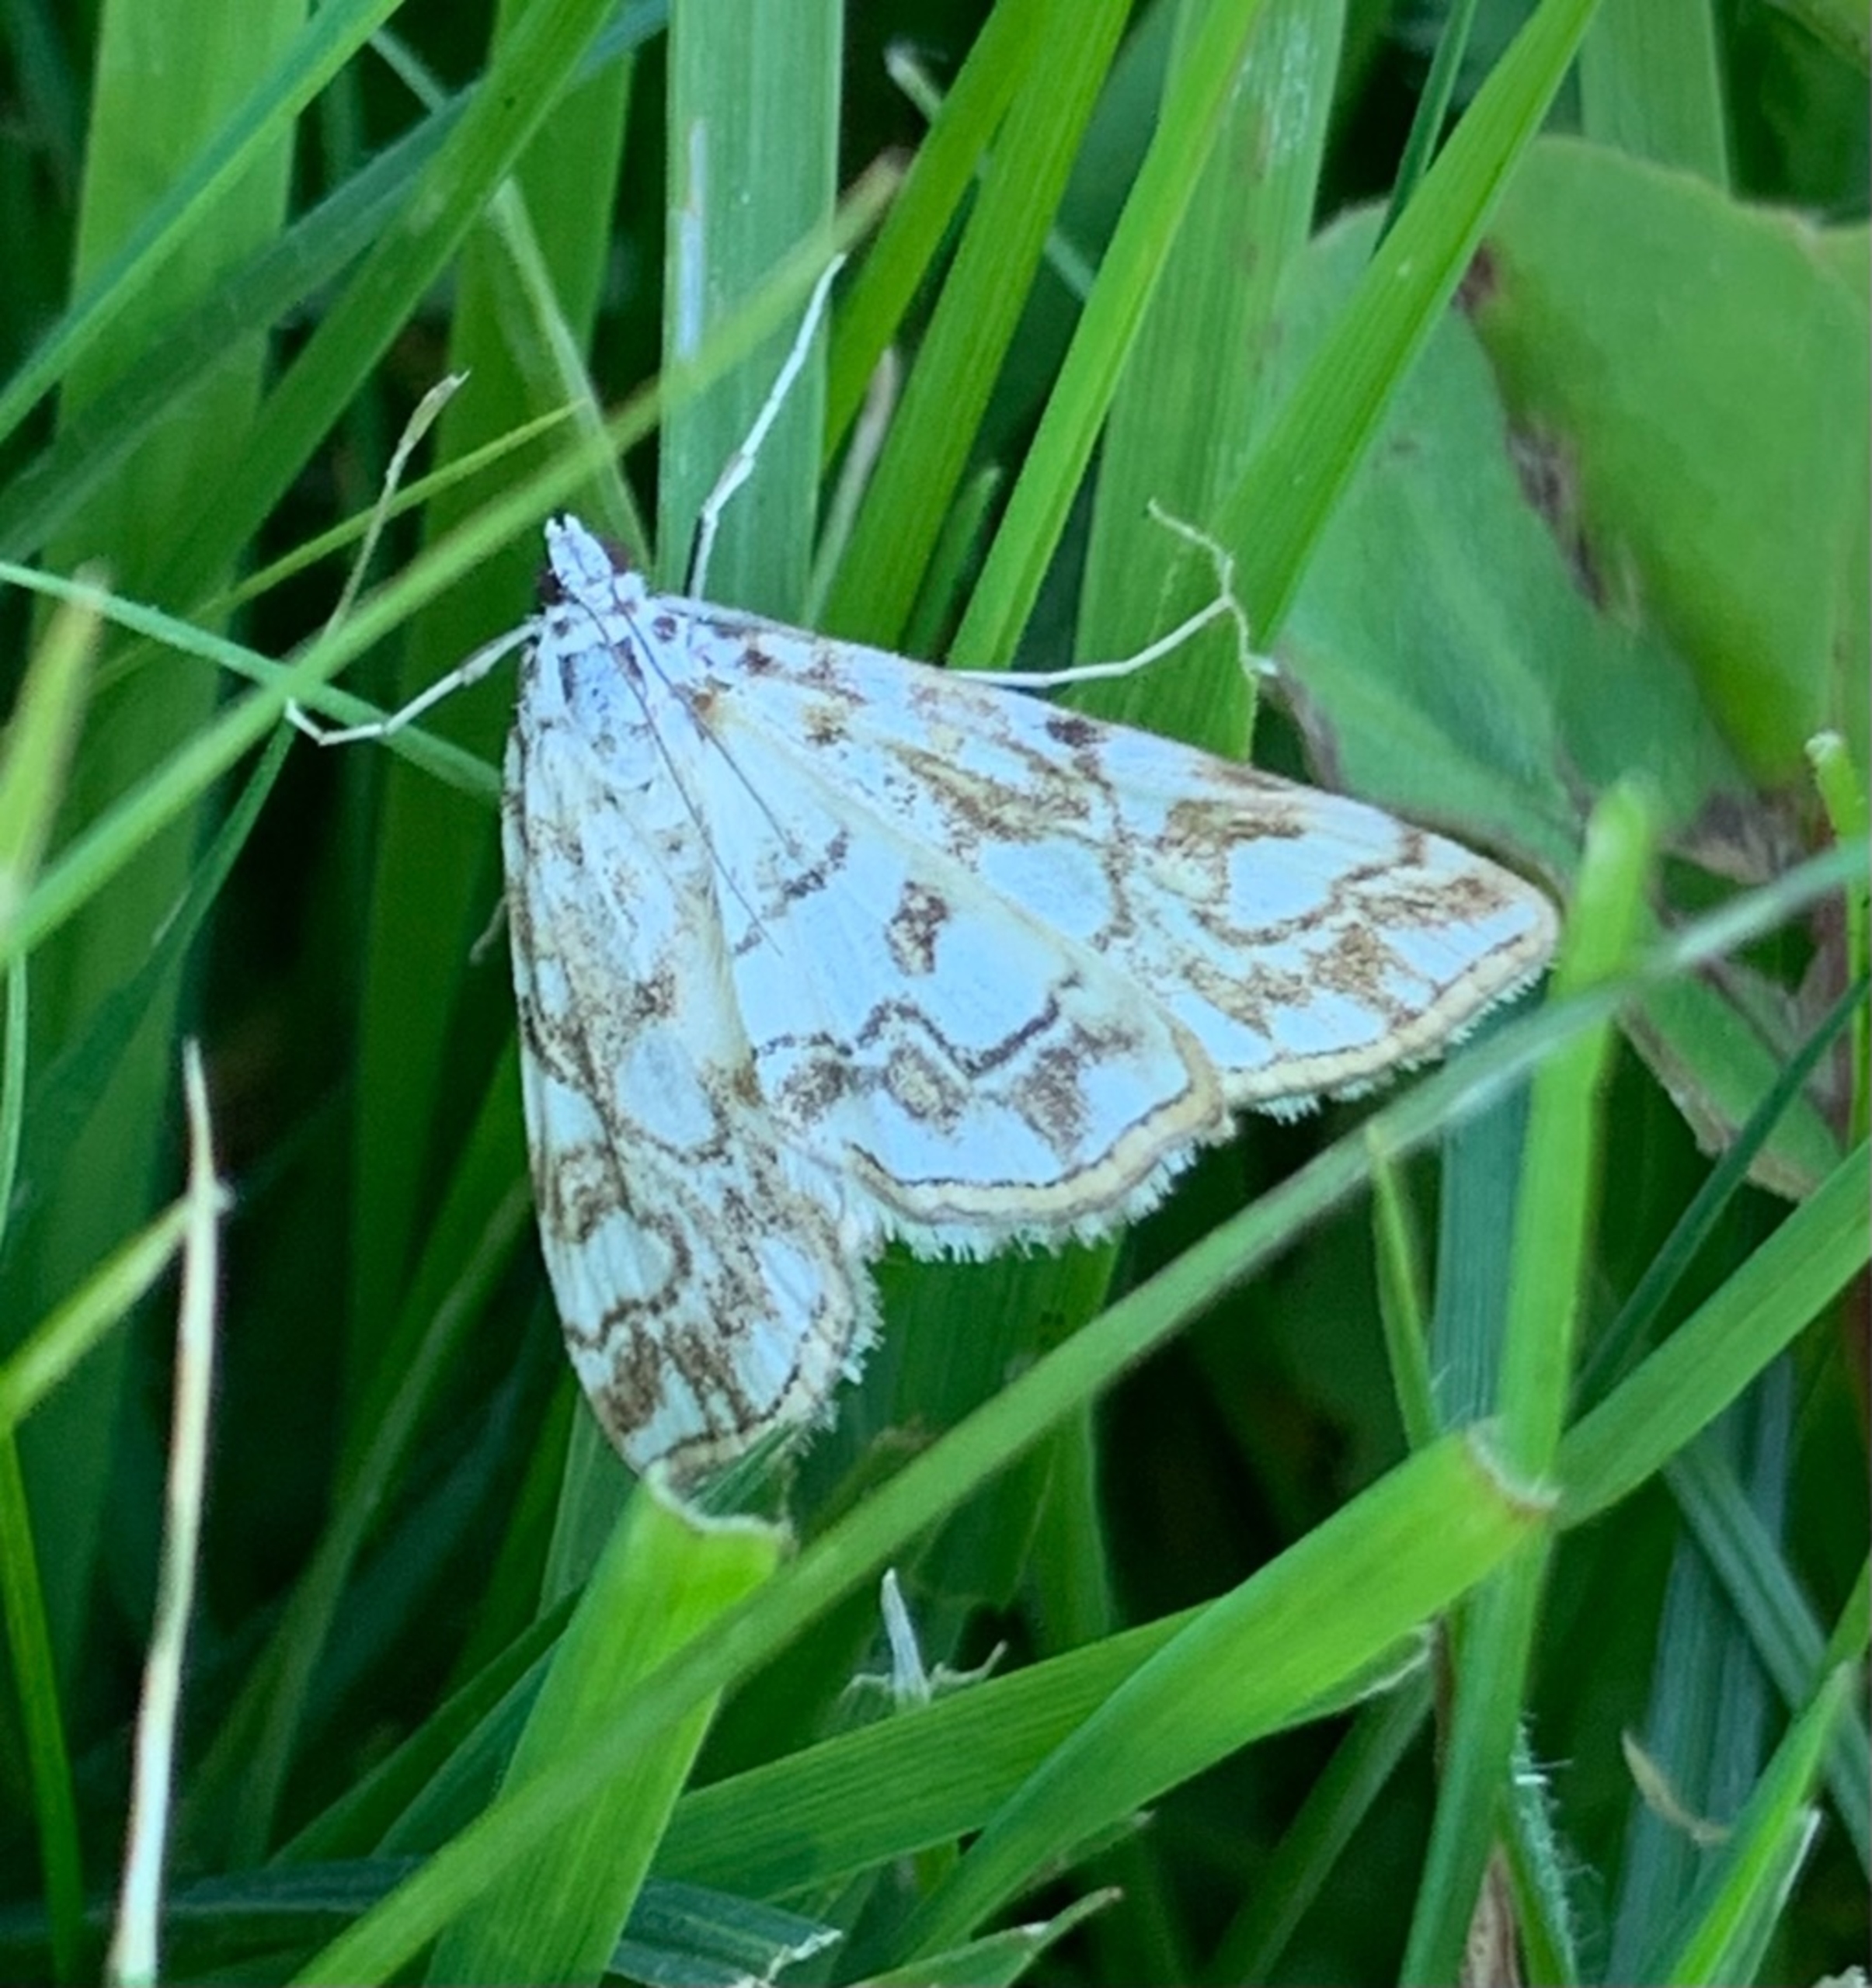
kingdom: Animalia
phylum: Arthropoda
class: Insecta
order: Lepidoptera
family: Crambidae
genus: Elophila
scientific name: Elophila nymphaeata
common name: Åkandehalvmøl
